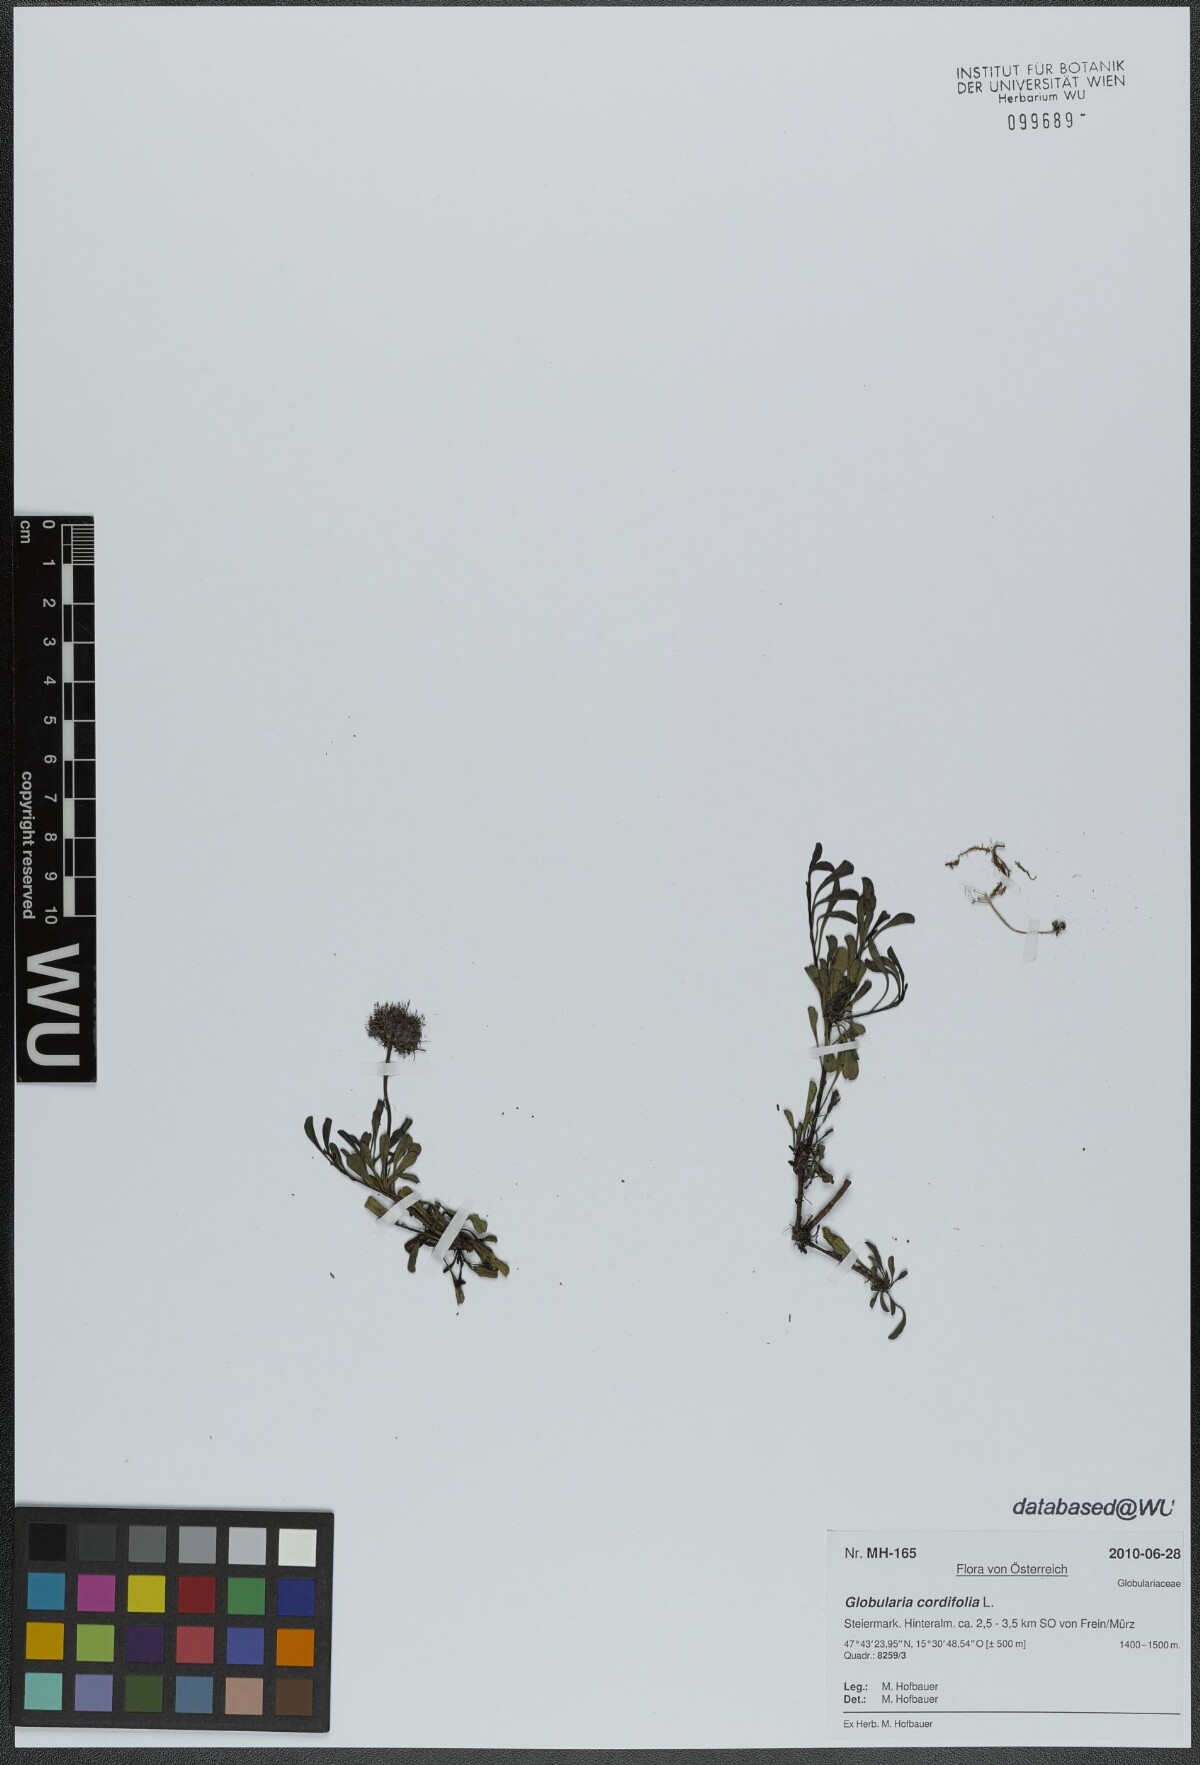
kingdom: Plantae
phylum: Tracheophyta
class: Magnoliopsida
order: Lamiales
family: Plantaginaceae
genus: Globularia
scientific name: Globularia cordifolia
